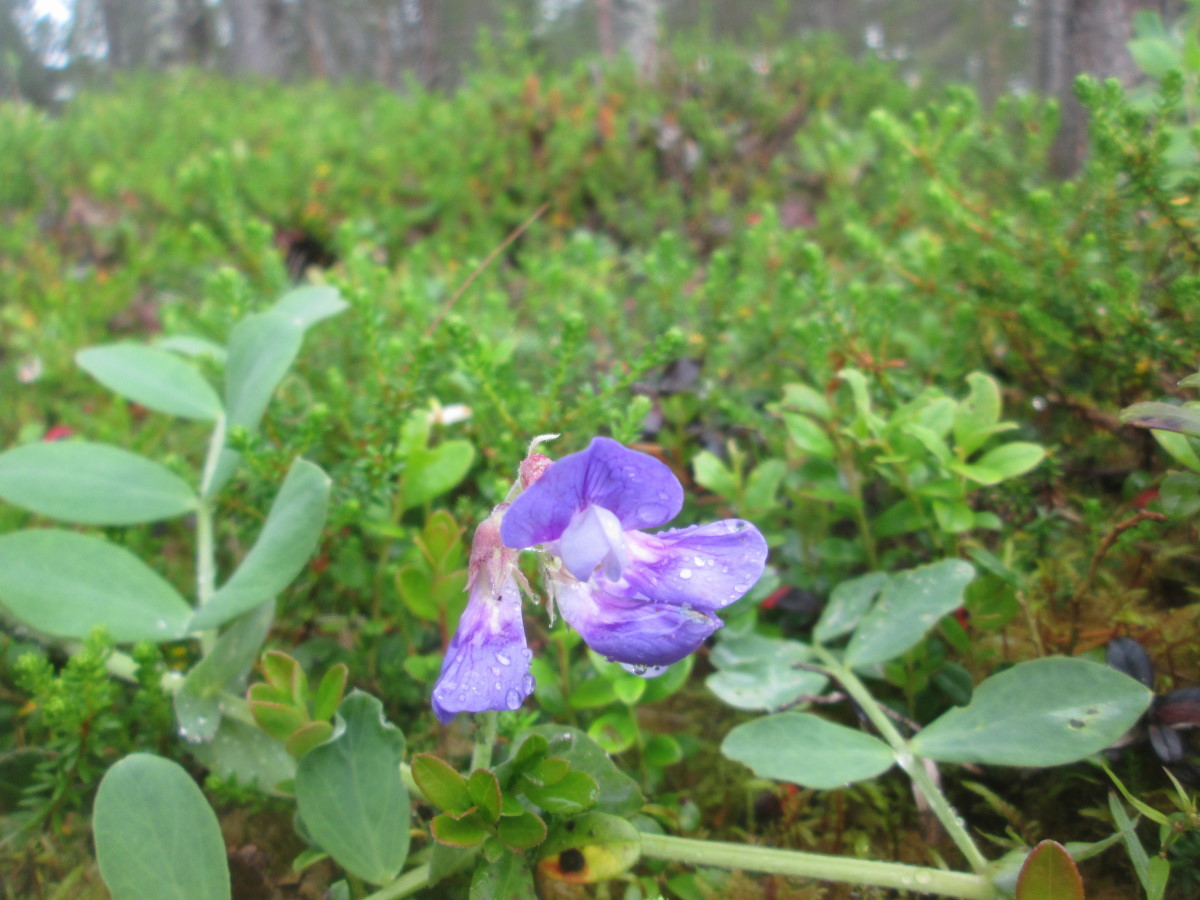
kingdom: Plantae
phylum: Tracheophyta
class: Magnoliopsida
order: Fabales
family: Fabaceae
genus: Lathyrus
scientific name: Lathyrus japonicus
